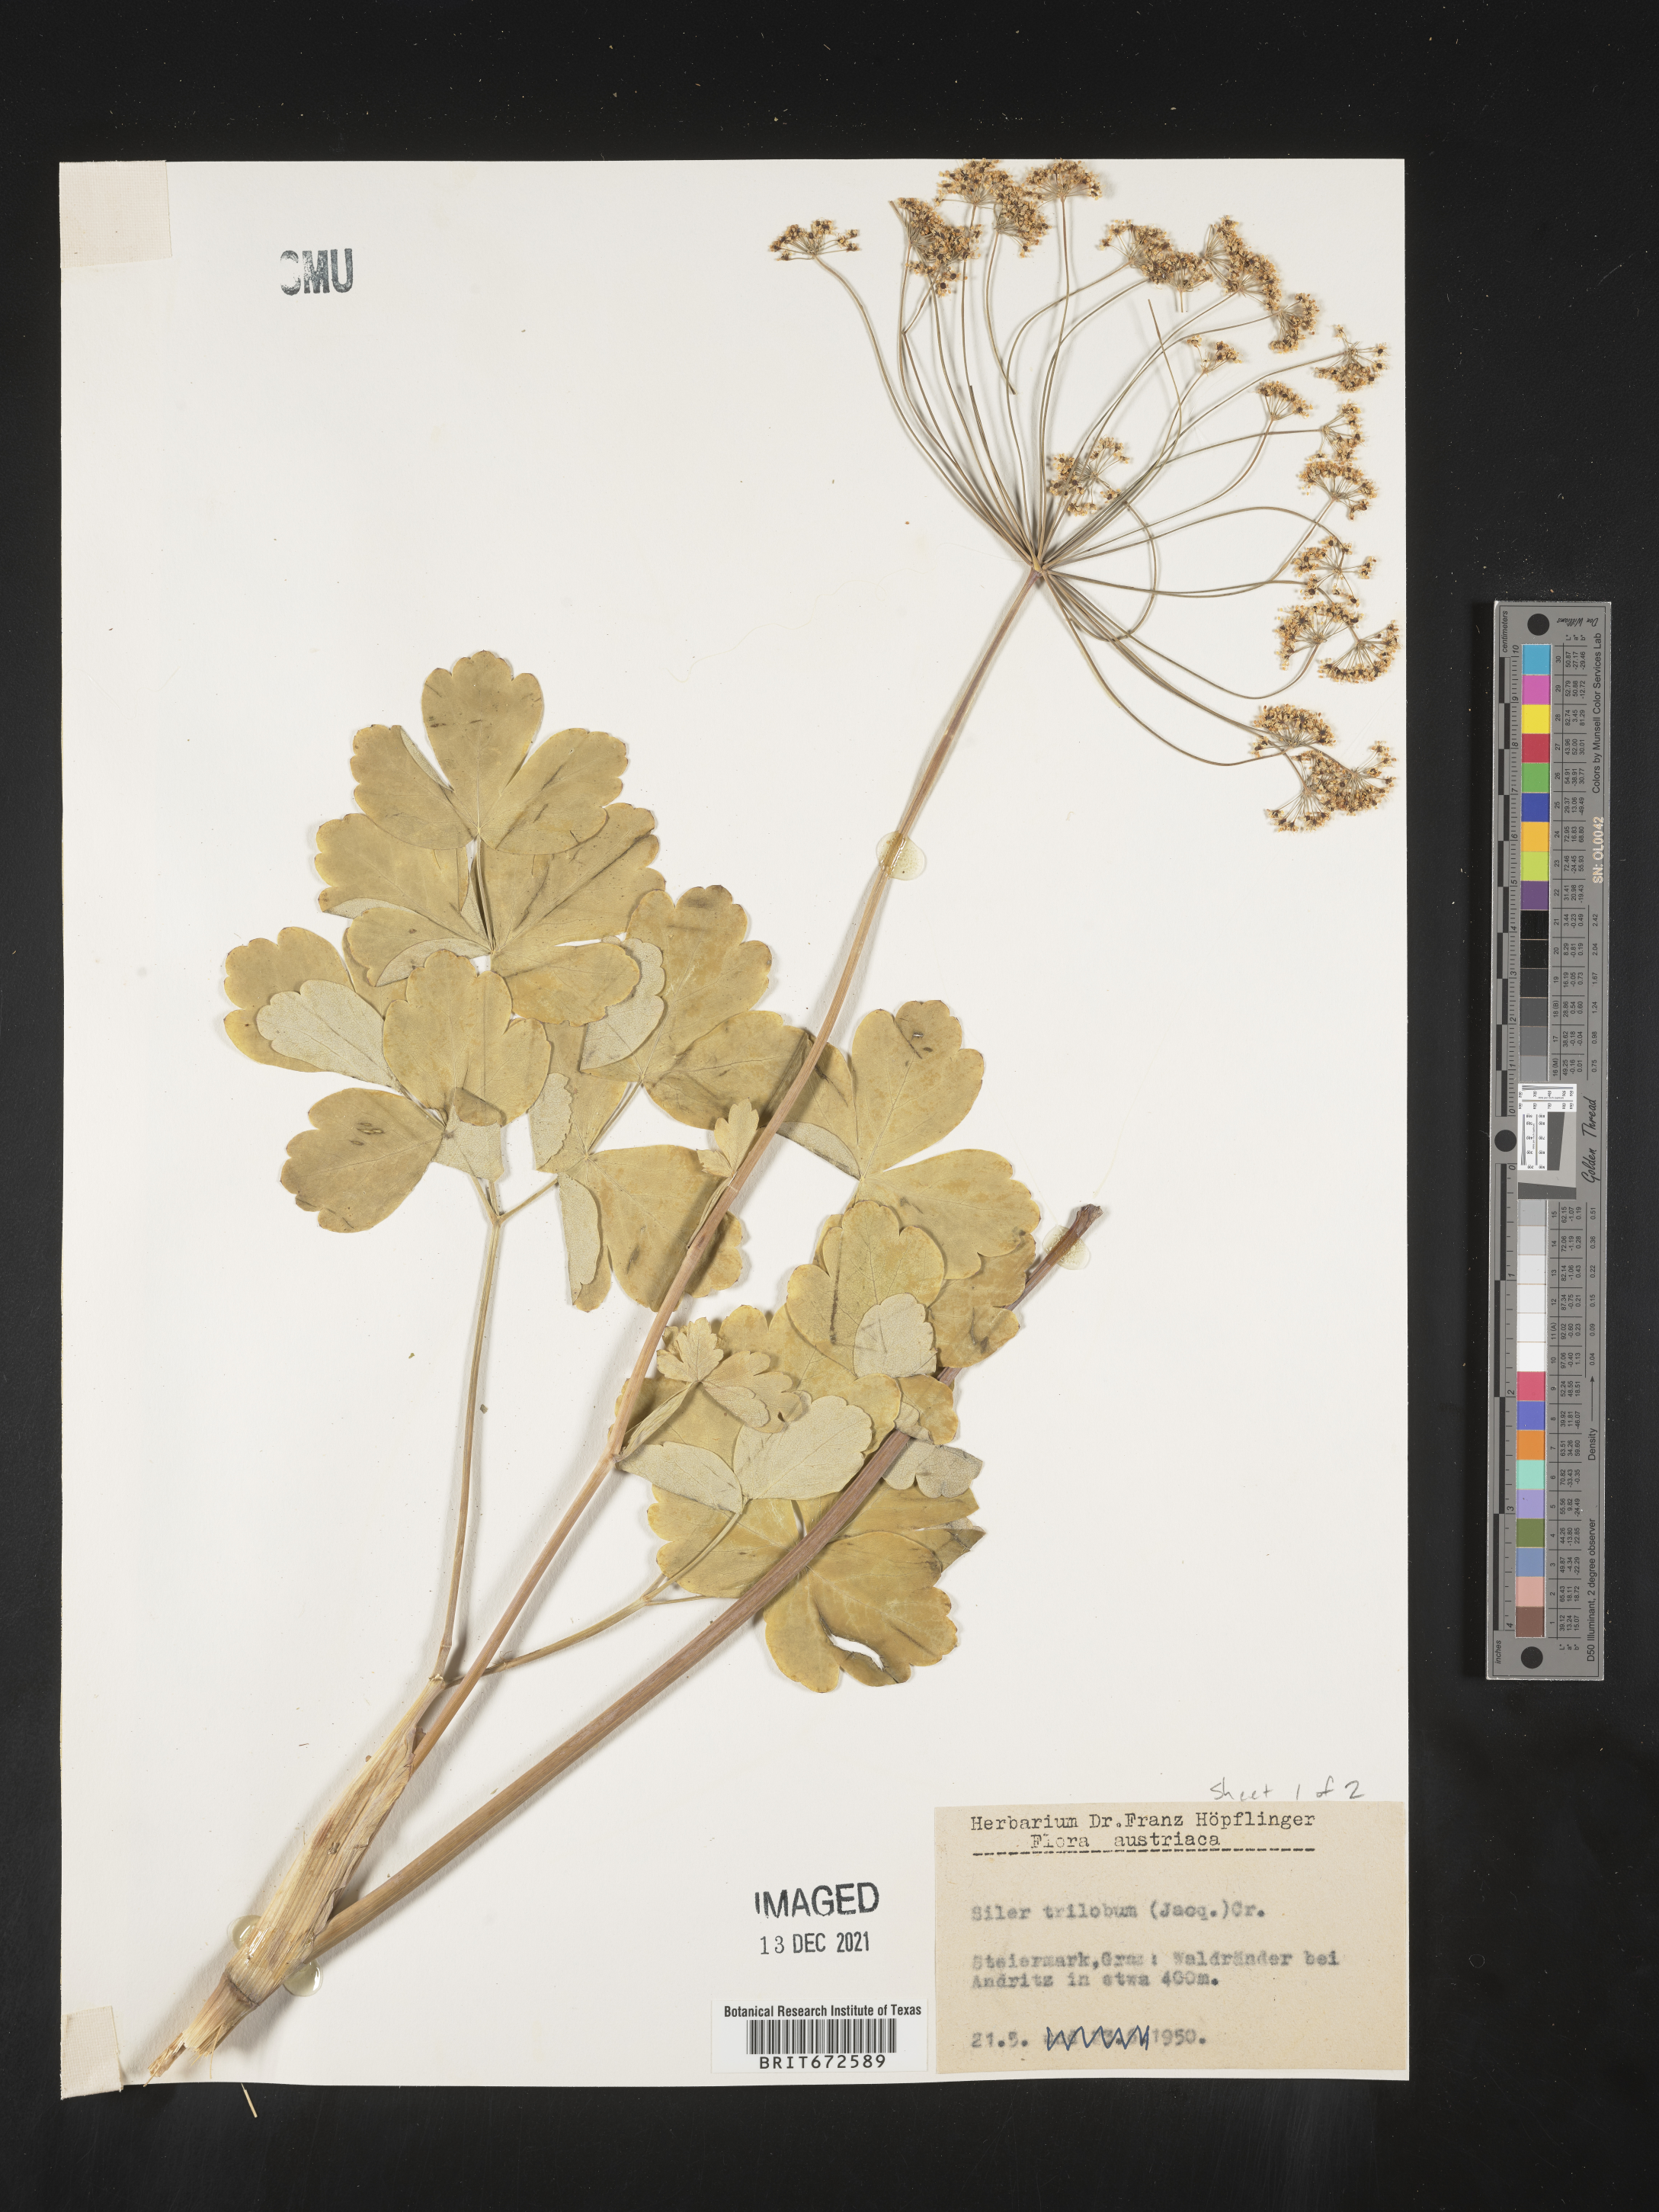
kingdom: Plantae
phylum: Tracheophyta
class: Magnoliopsida
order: Apiales
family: Apiaceae
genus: Siler
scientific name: Siler
